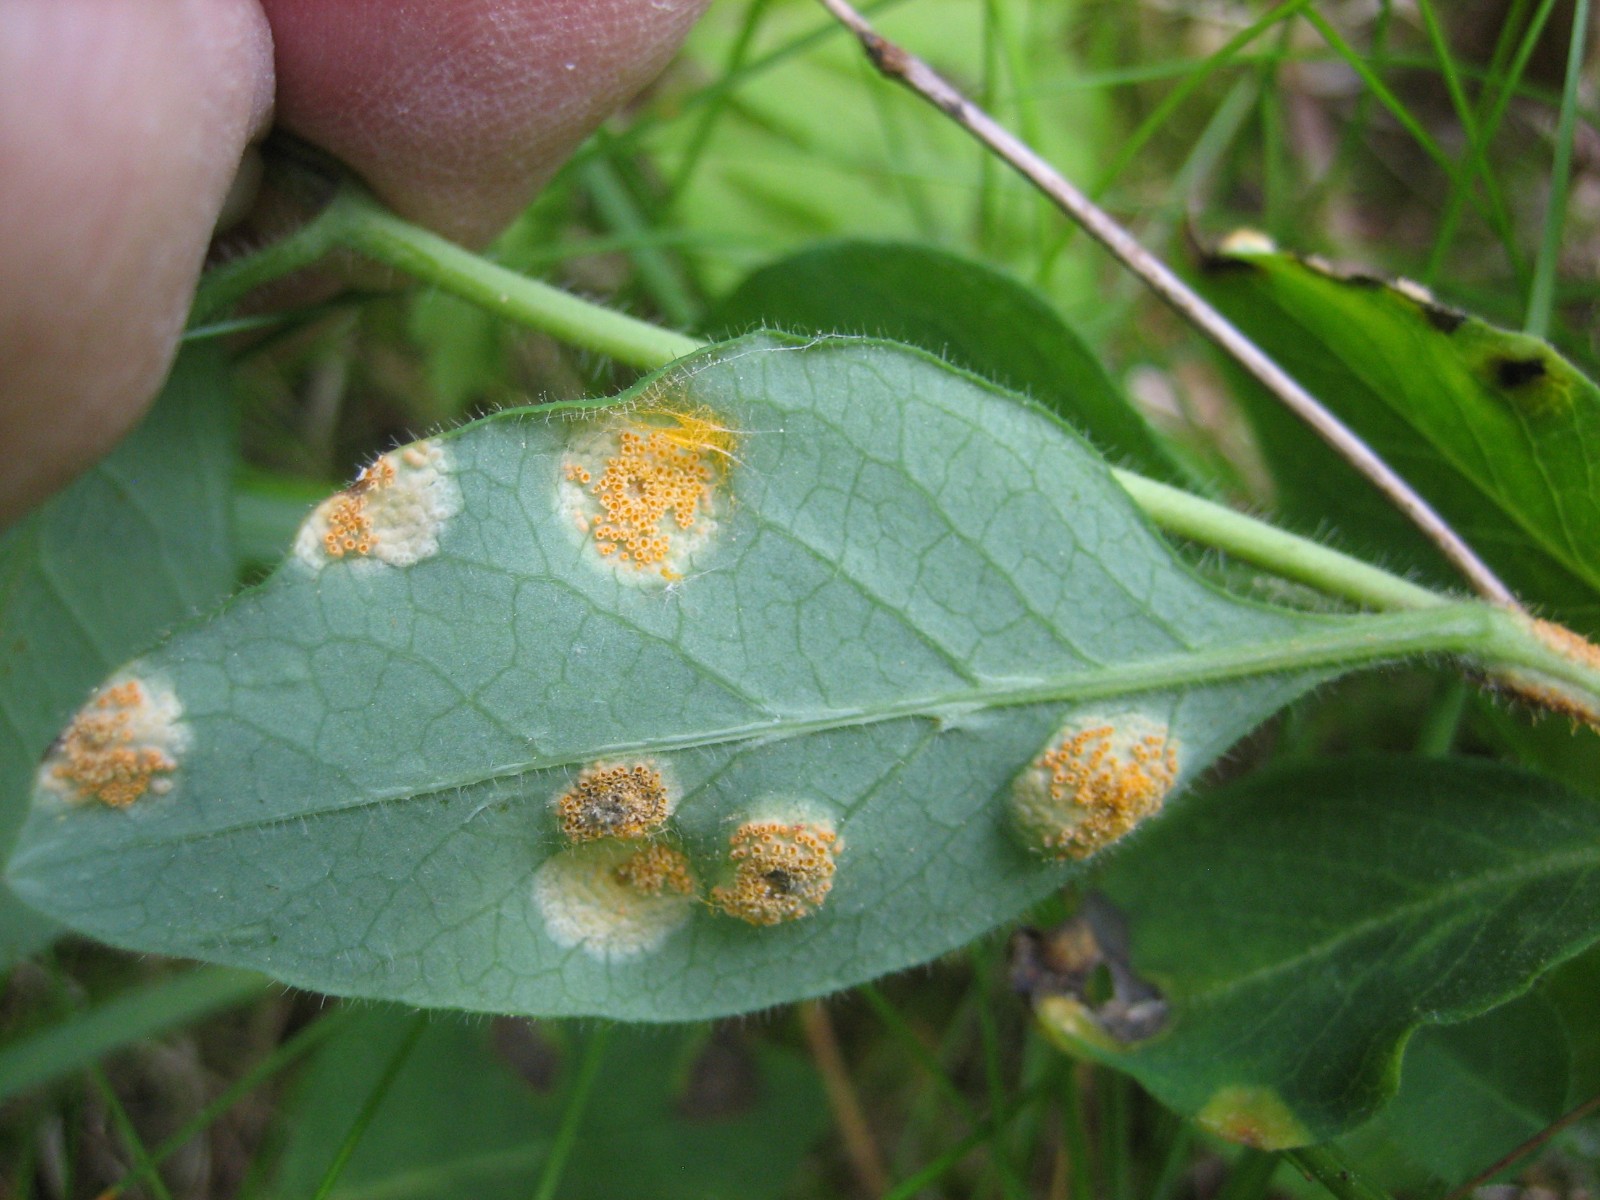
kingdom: Fungi
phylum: Basidiomycota
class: Pucciniomycetes
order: Pucciniales
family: Pucciniaceae
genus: Puccinia
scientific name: Puccinia festucae
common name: gedeblad-tvecellerust
